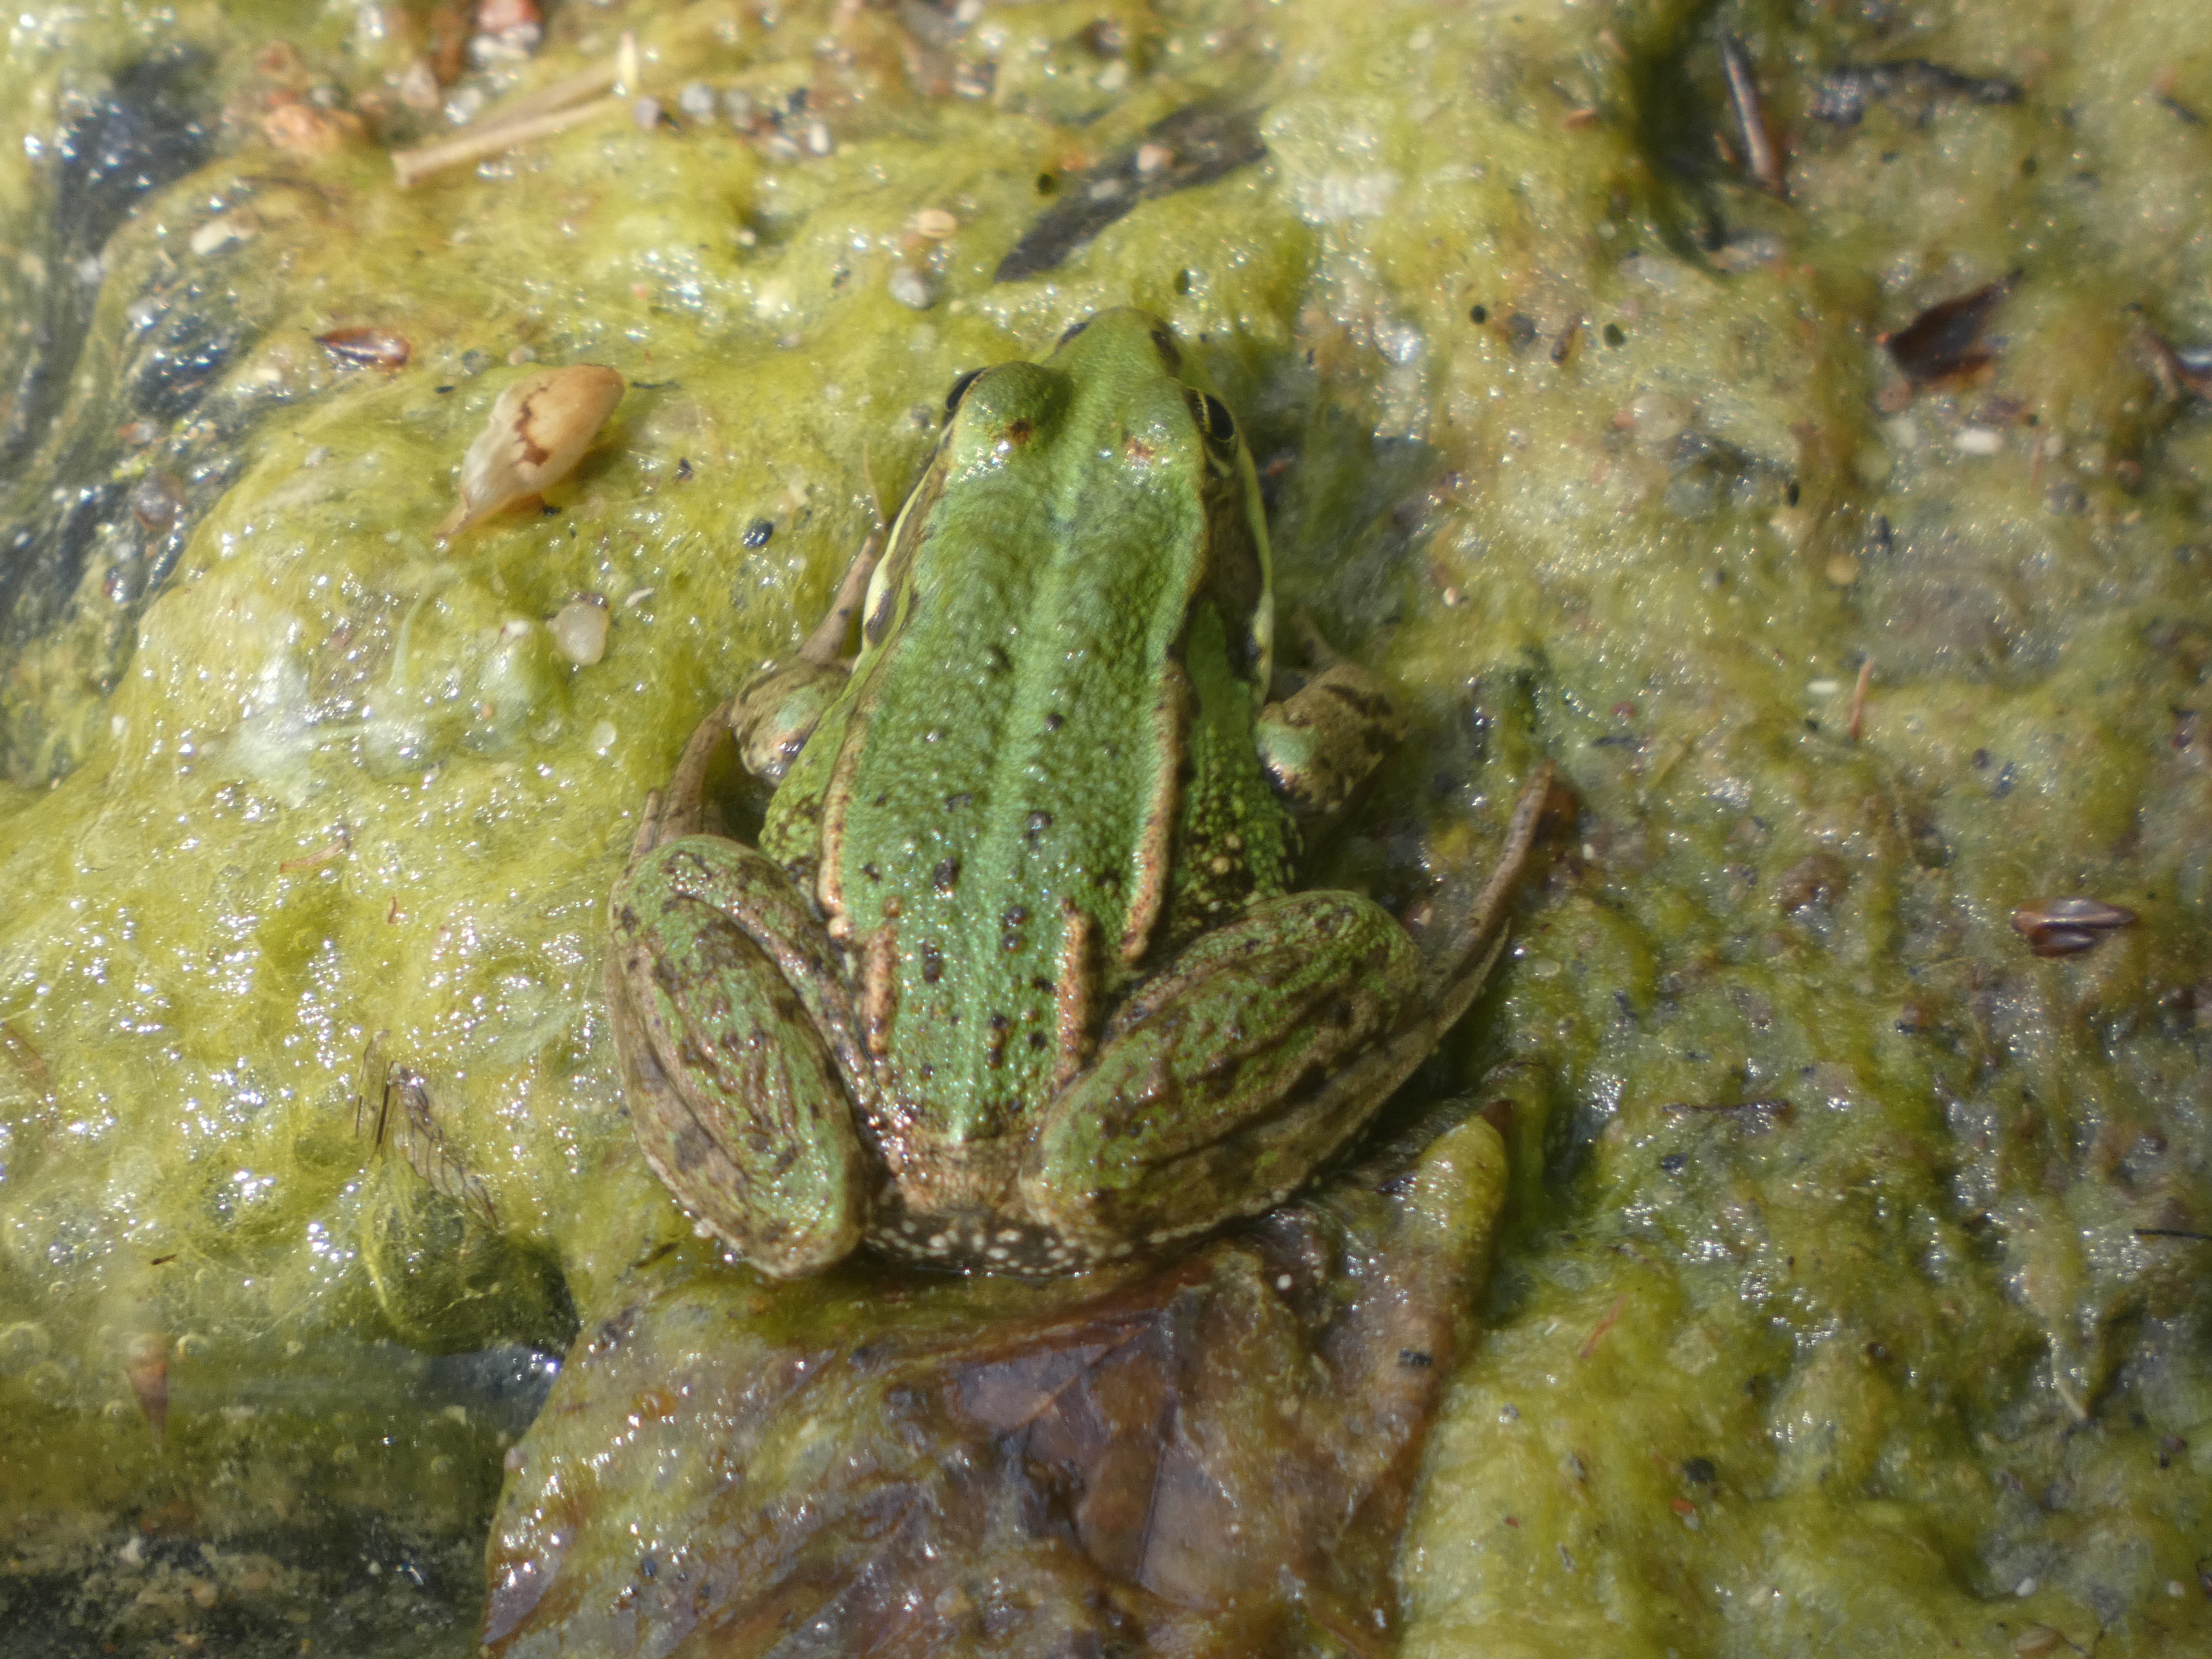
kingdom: Animalia
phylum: Chordata
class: Amphibia
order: Anura
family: Ranidae
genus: Pelophylax
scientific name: Pelophylax lessonae
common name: Grøn frø
